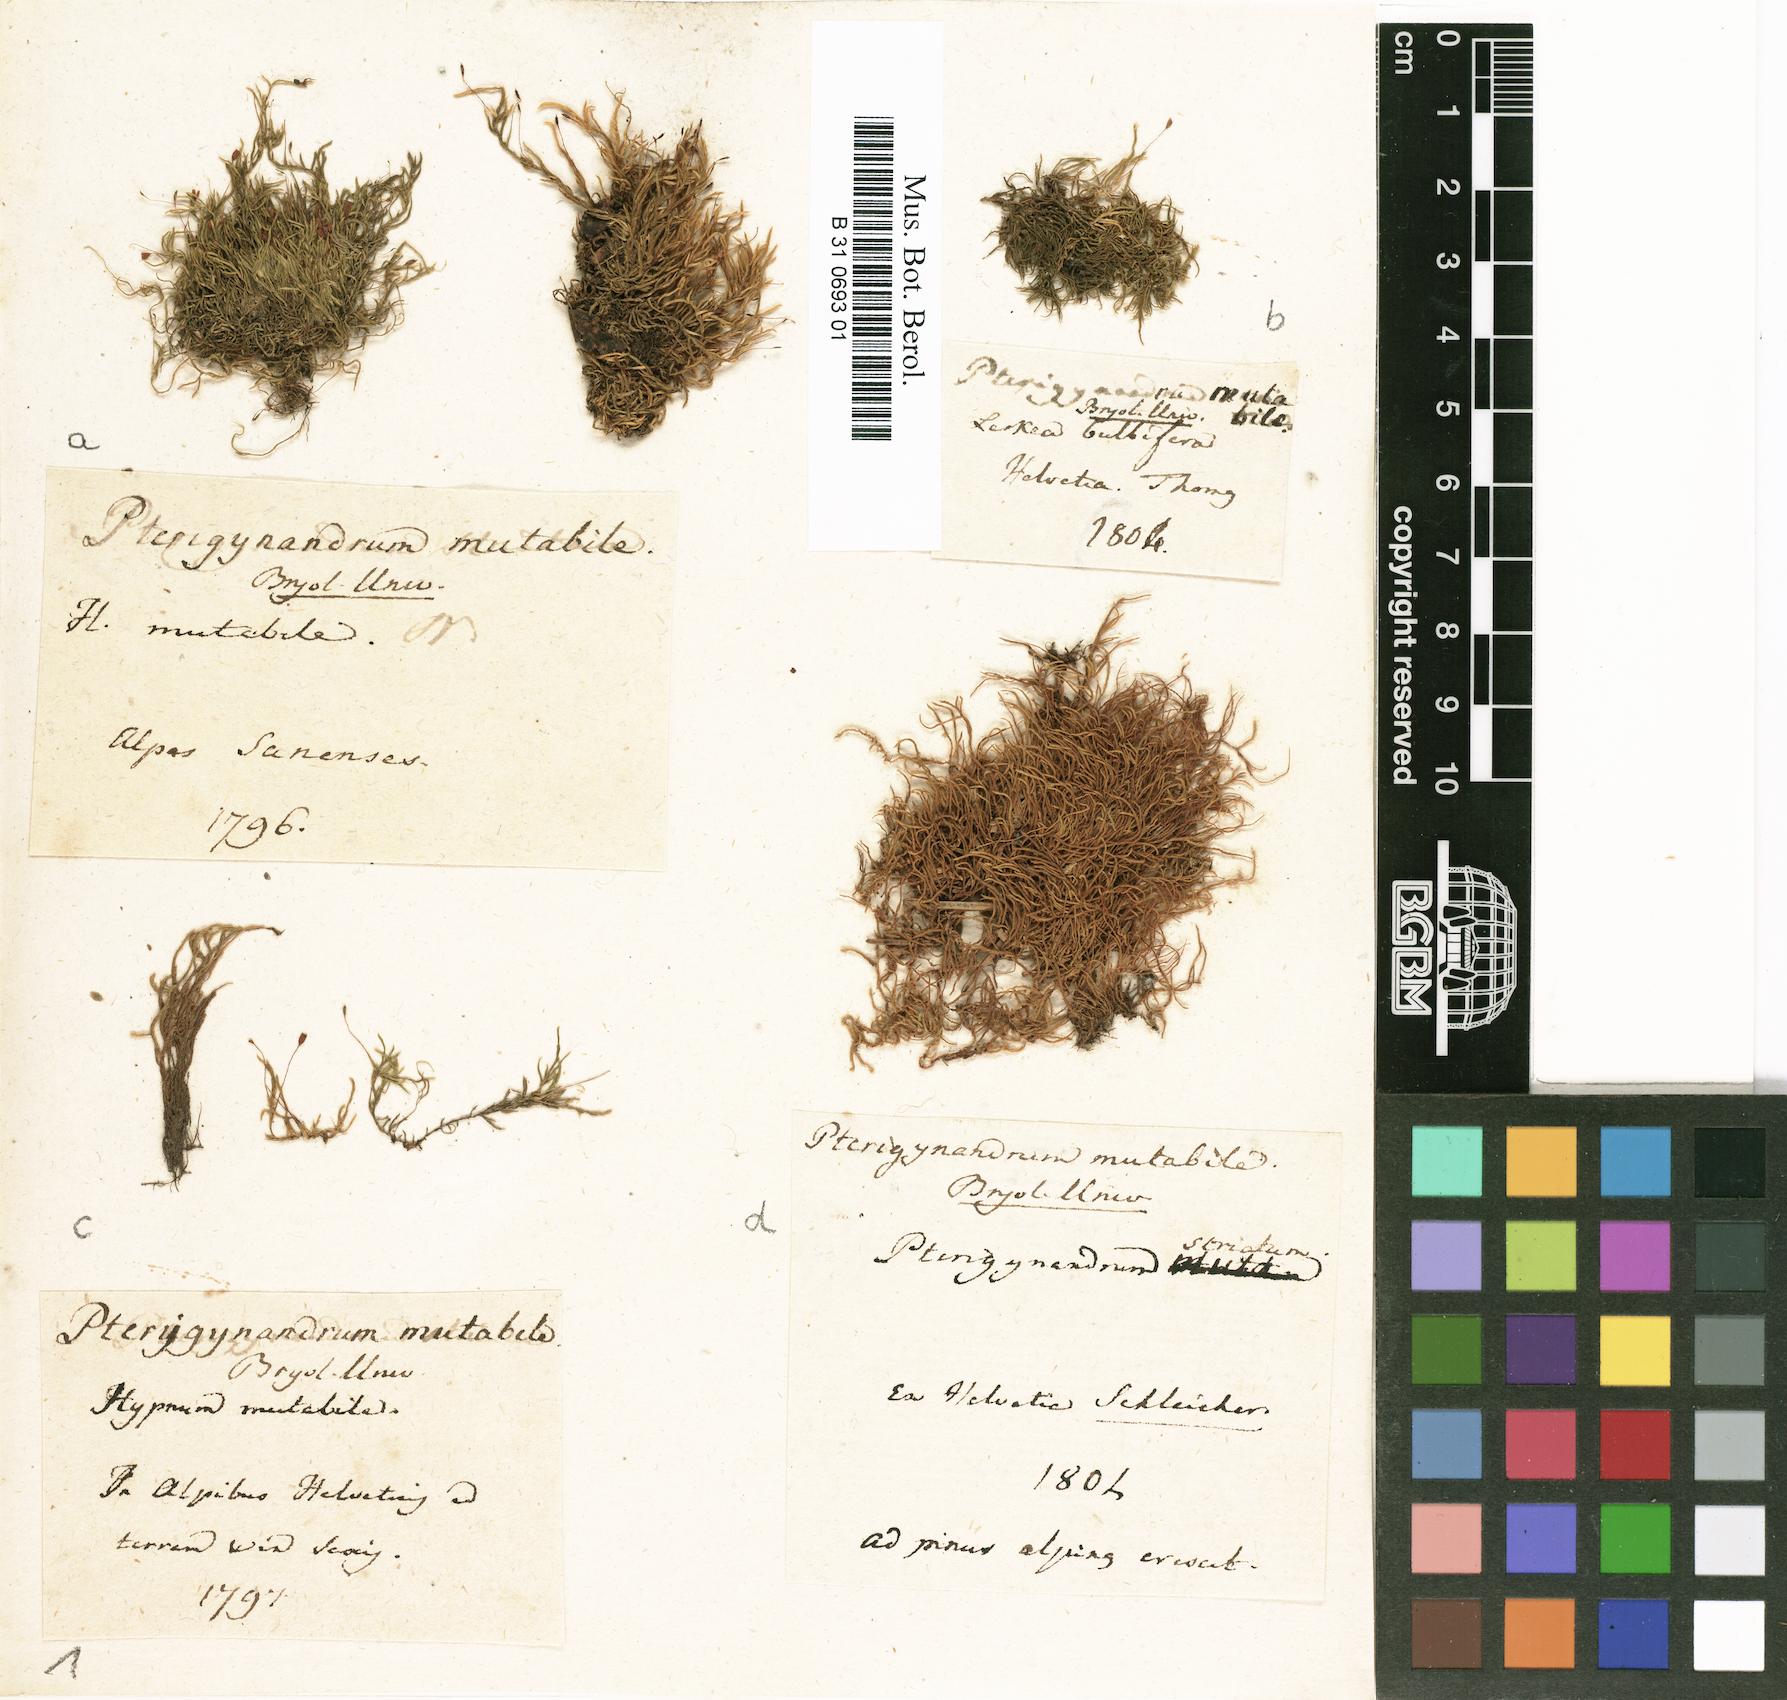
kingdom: Plantae
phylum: Bryophyta
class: Bryopsida
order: Hypnales
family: Pseudoleskeaceae
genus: Lescuraea
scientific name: Lescuraea mutabilis
